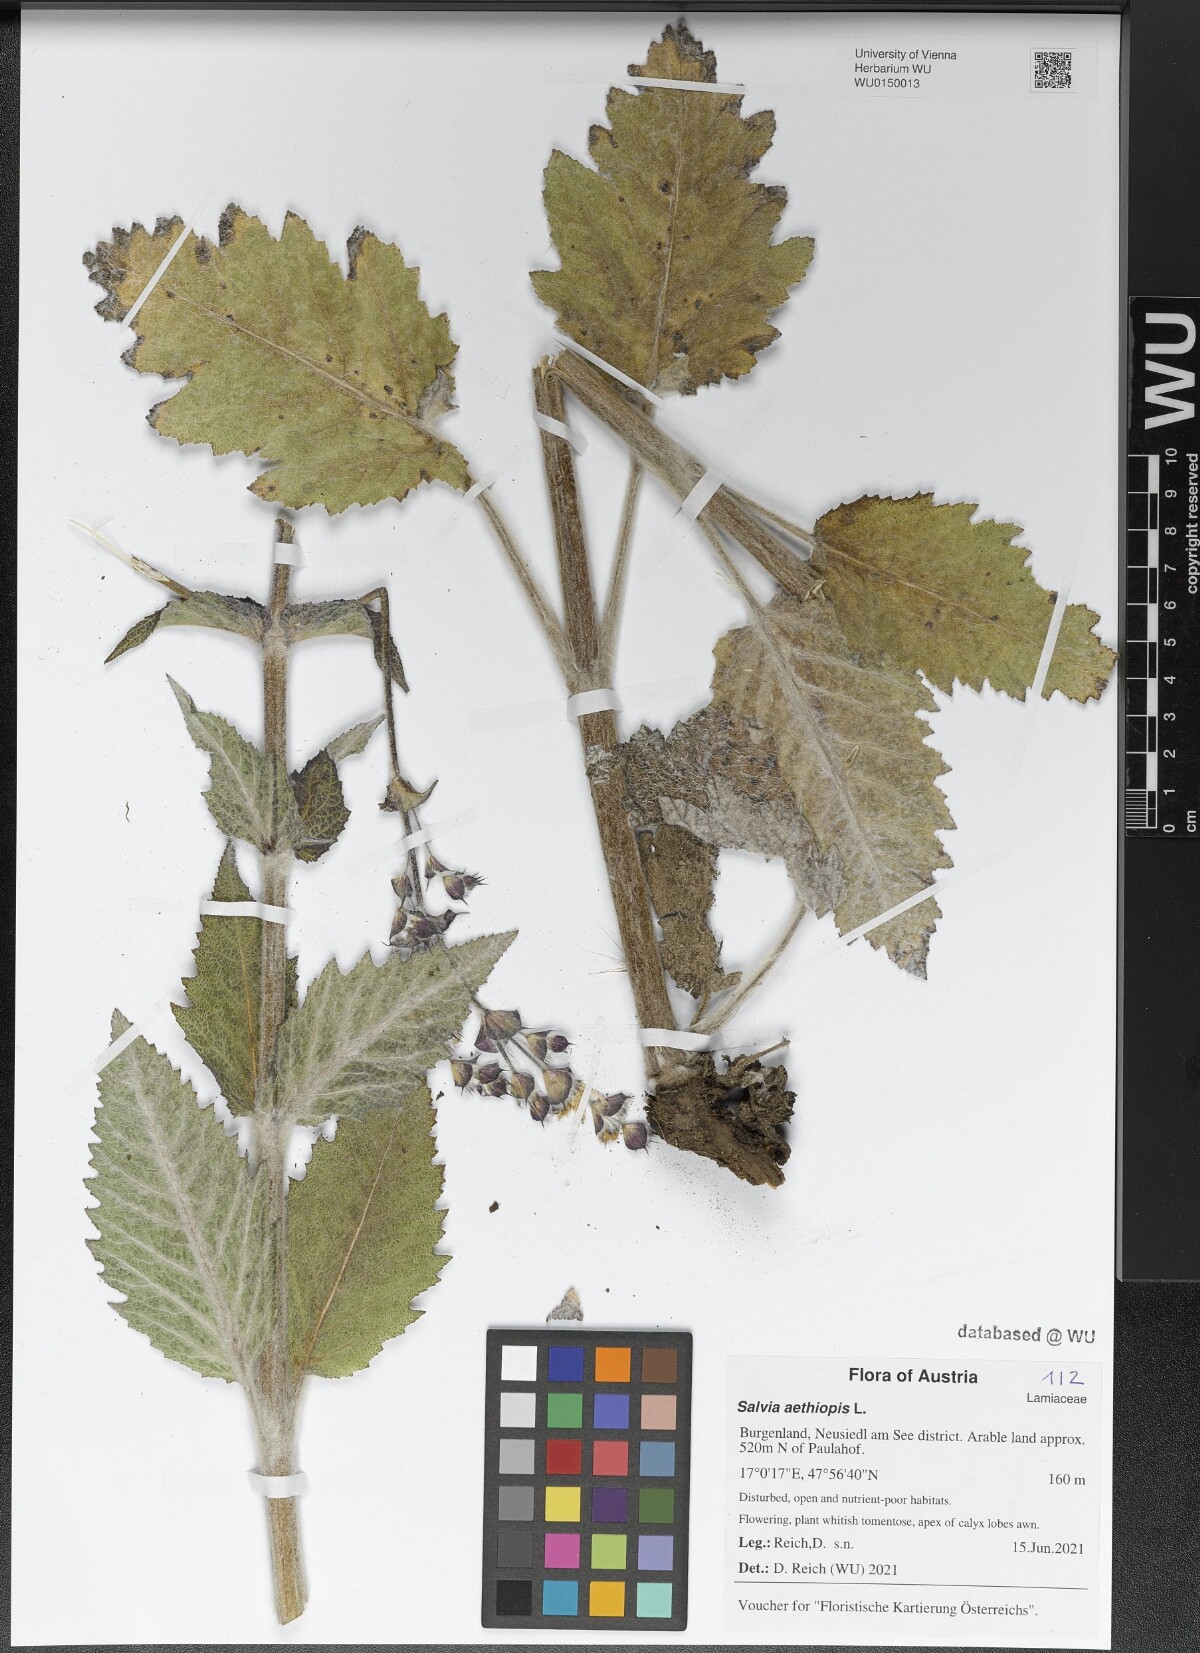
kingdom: Plantae
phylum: Tracheophyta
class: Magnoliopsida
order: Lamiales
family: Lamiaceae
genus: Salvia
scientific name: Salvia aethiopis
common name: Mediterranean sage
